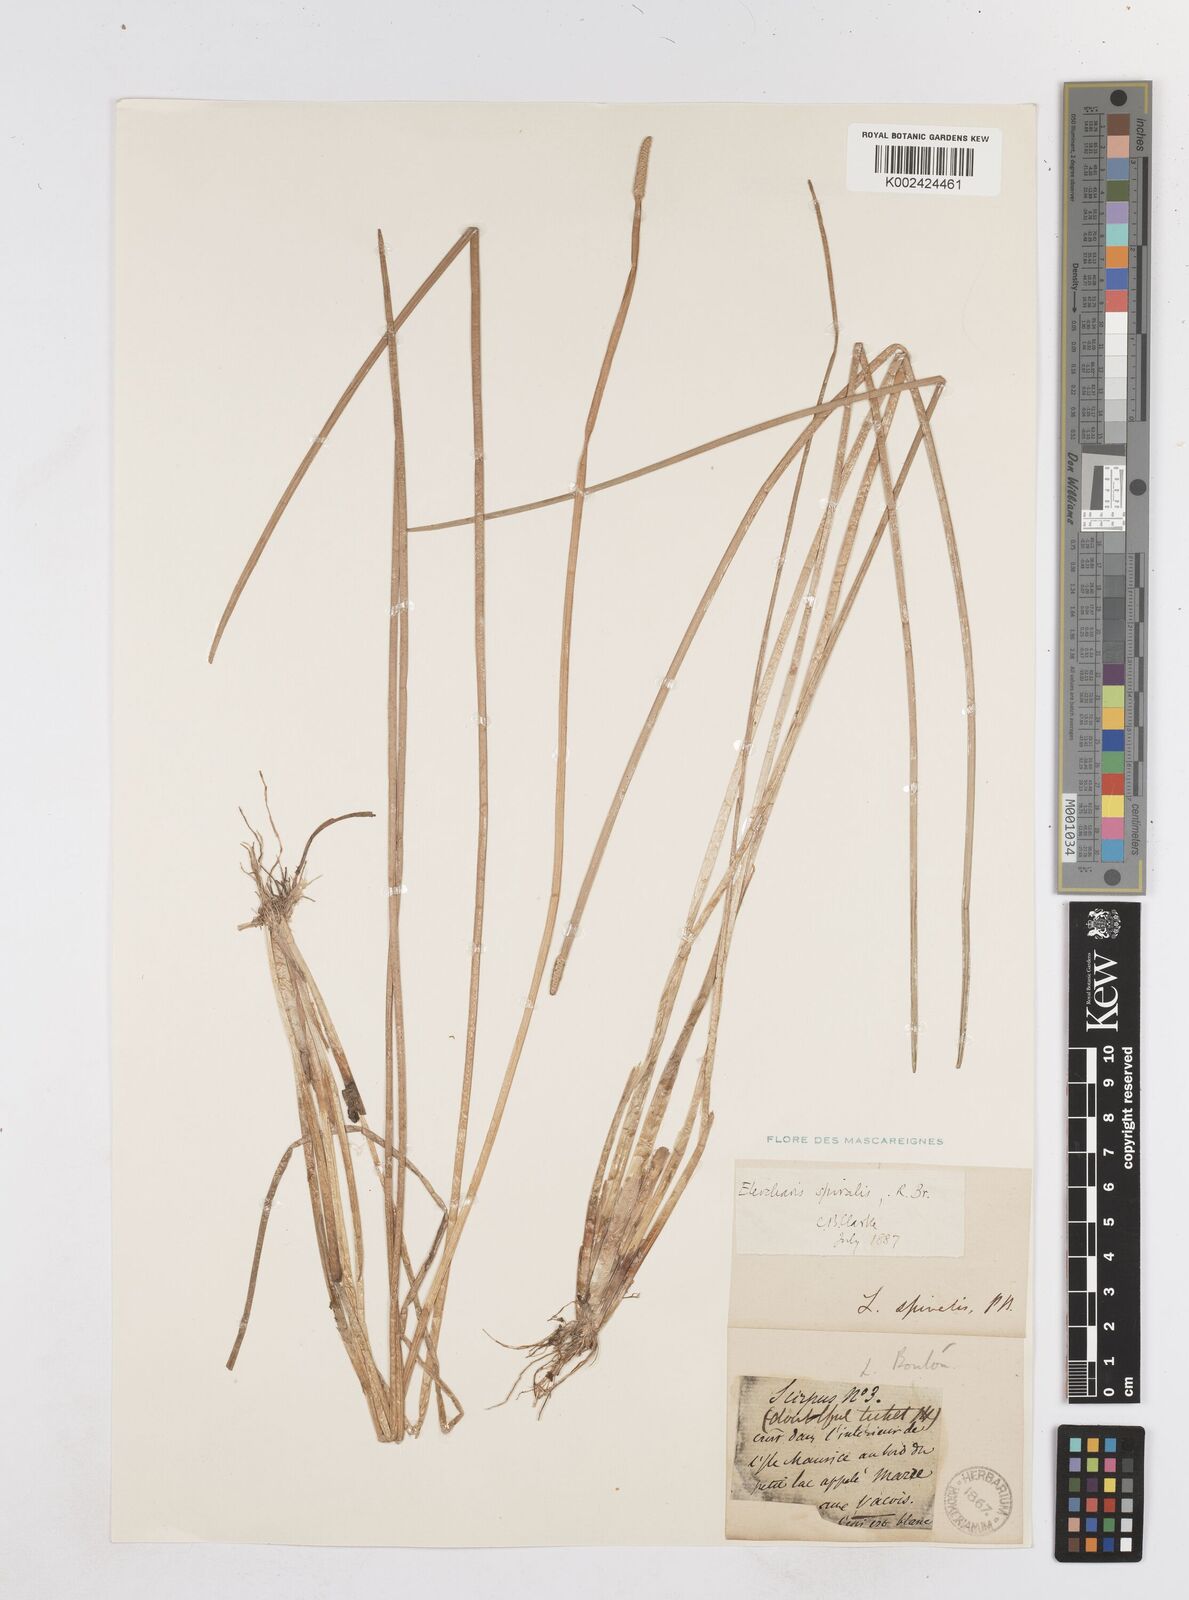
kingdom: Plantae
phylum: Tracheophyta
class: Liliopsida
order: Poales
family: Cyperaceae
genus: Eleocharis
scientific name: Eleocharis spiralis
